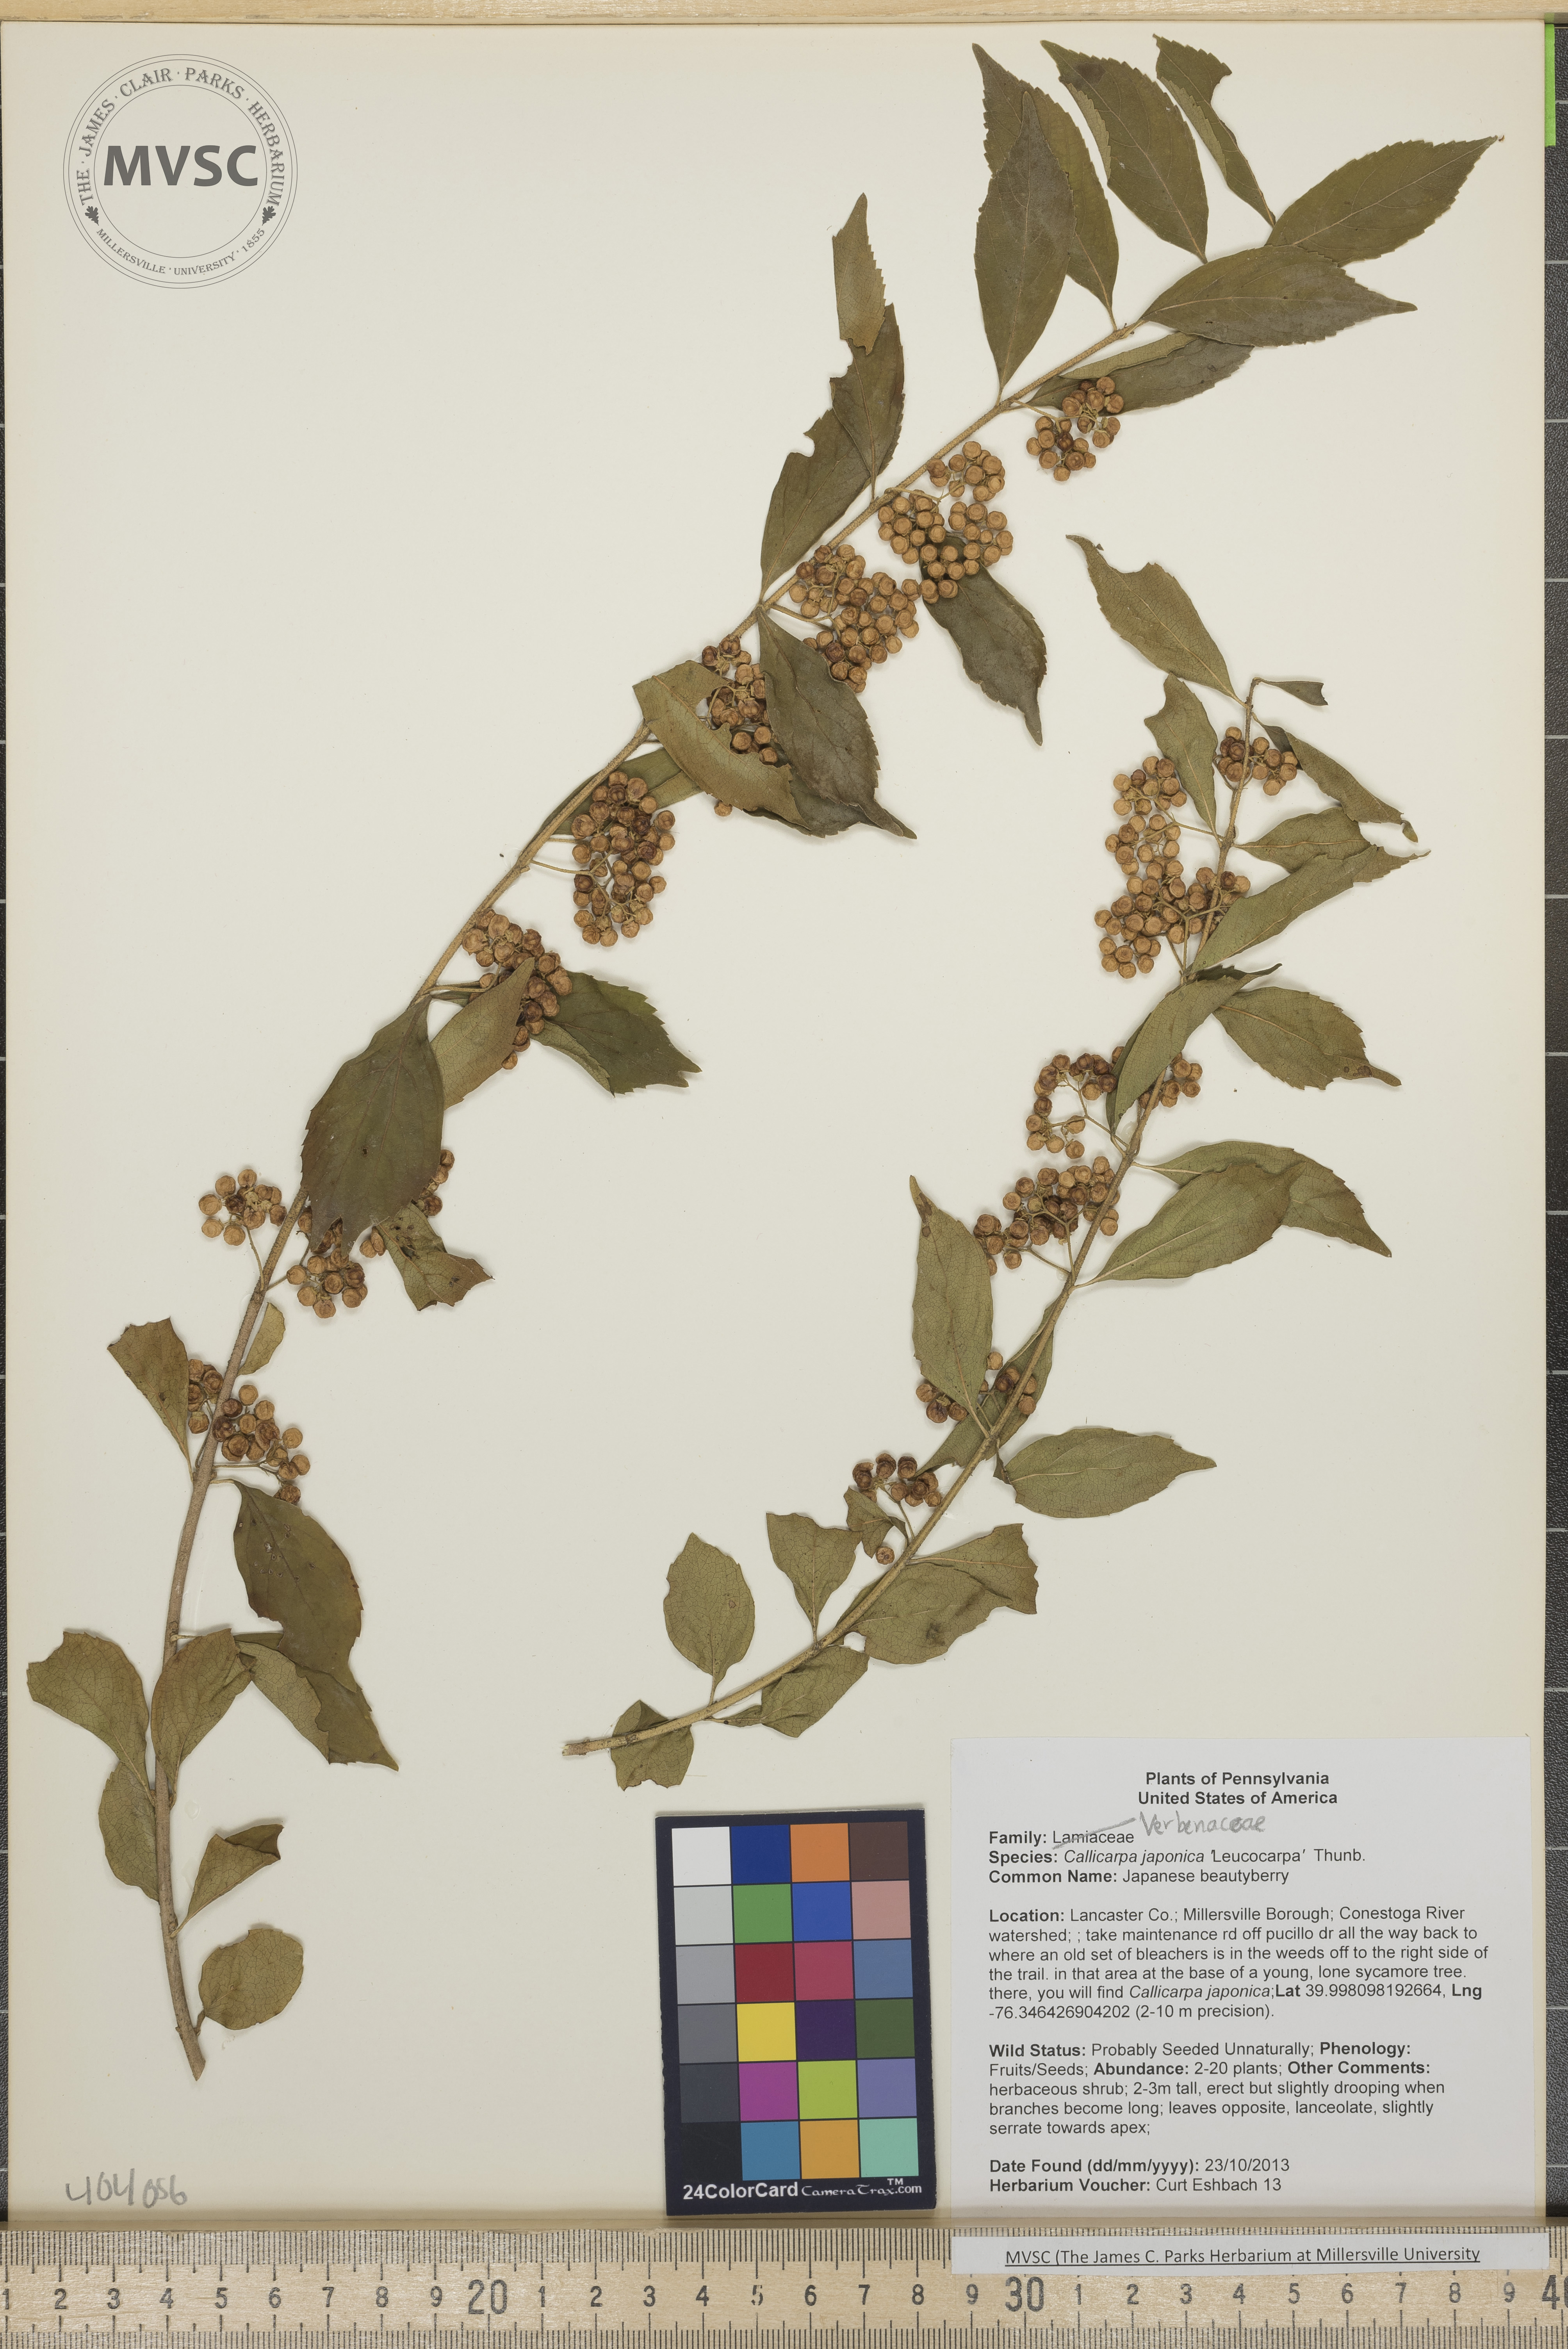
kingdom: Plantae
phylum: Tracheophyta
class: Magnoliopsida
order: Lamiales
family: Lamiaceae
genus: Callicarpa
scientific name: Callicarpa dichotoma
